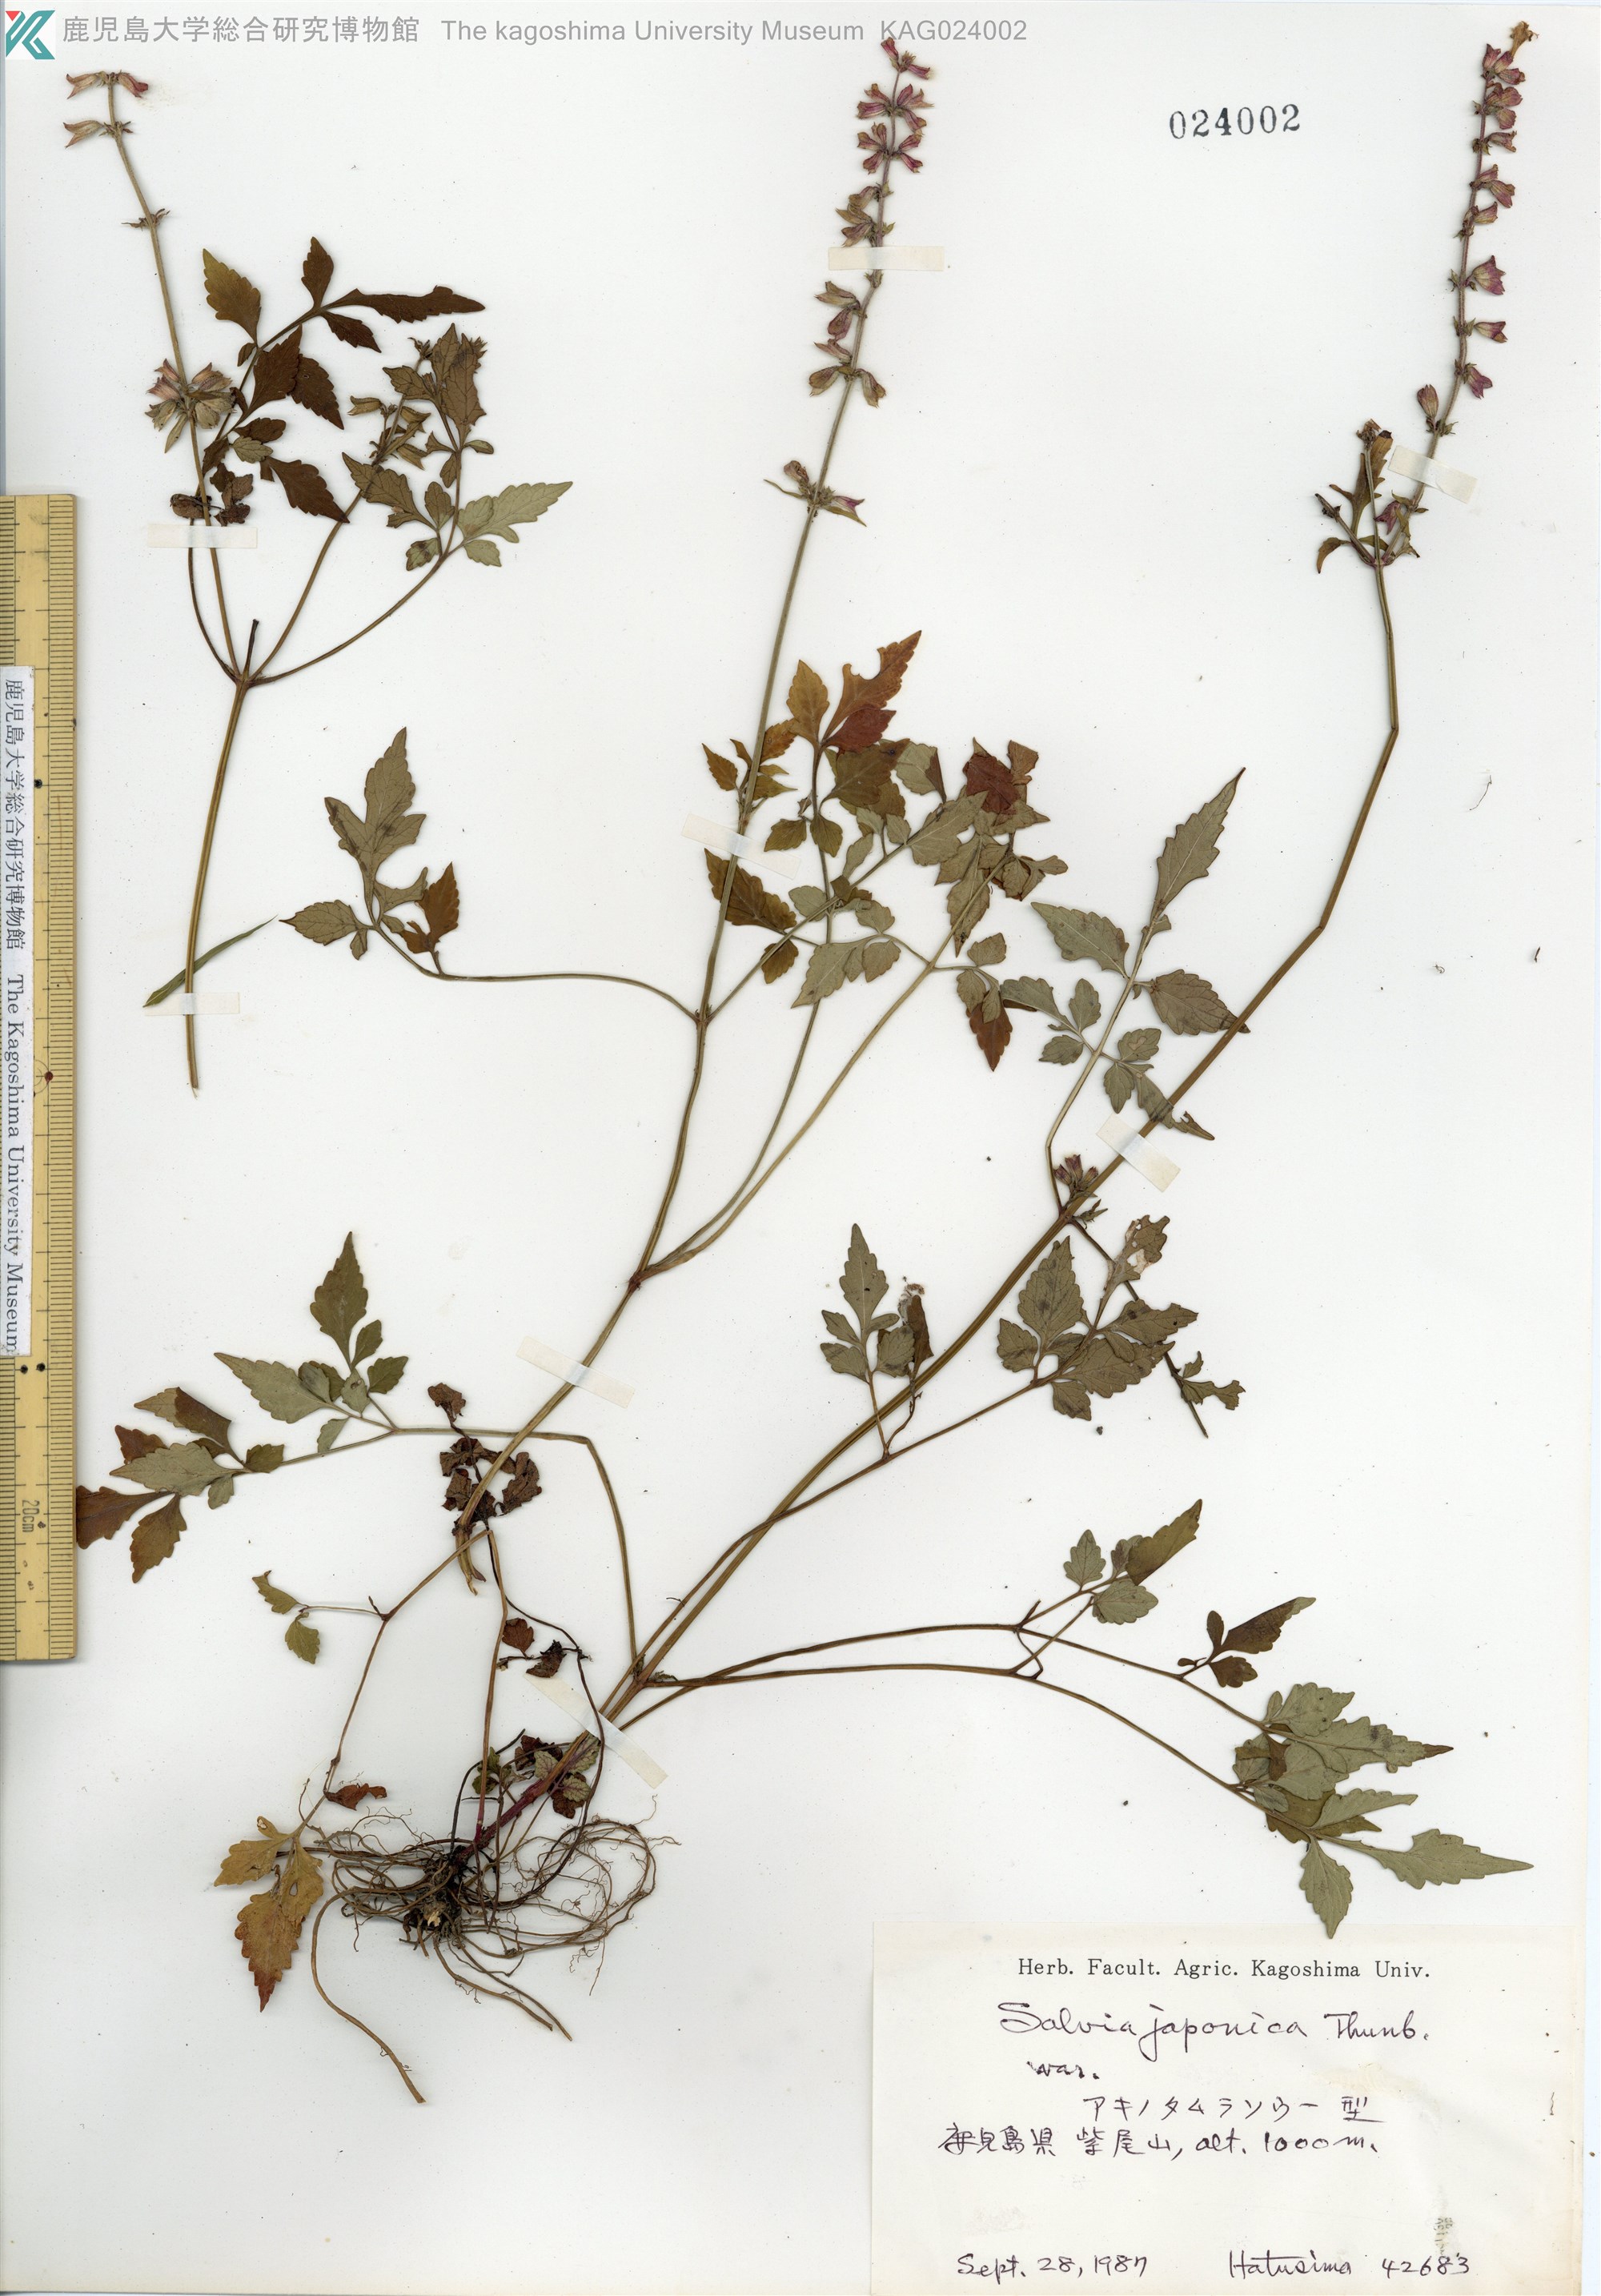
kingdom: Plantae
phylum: Tracheophyta
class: Magnoliopsida
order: Lamiales
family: Lamiaceae
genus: Salvia
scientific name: Salvia japonica
